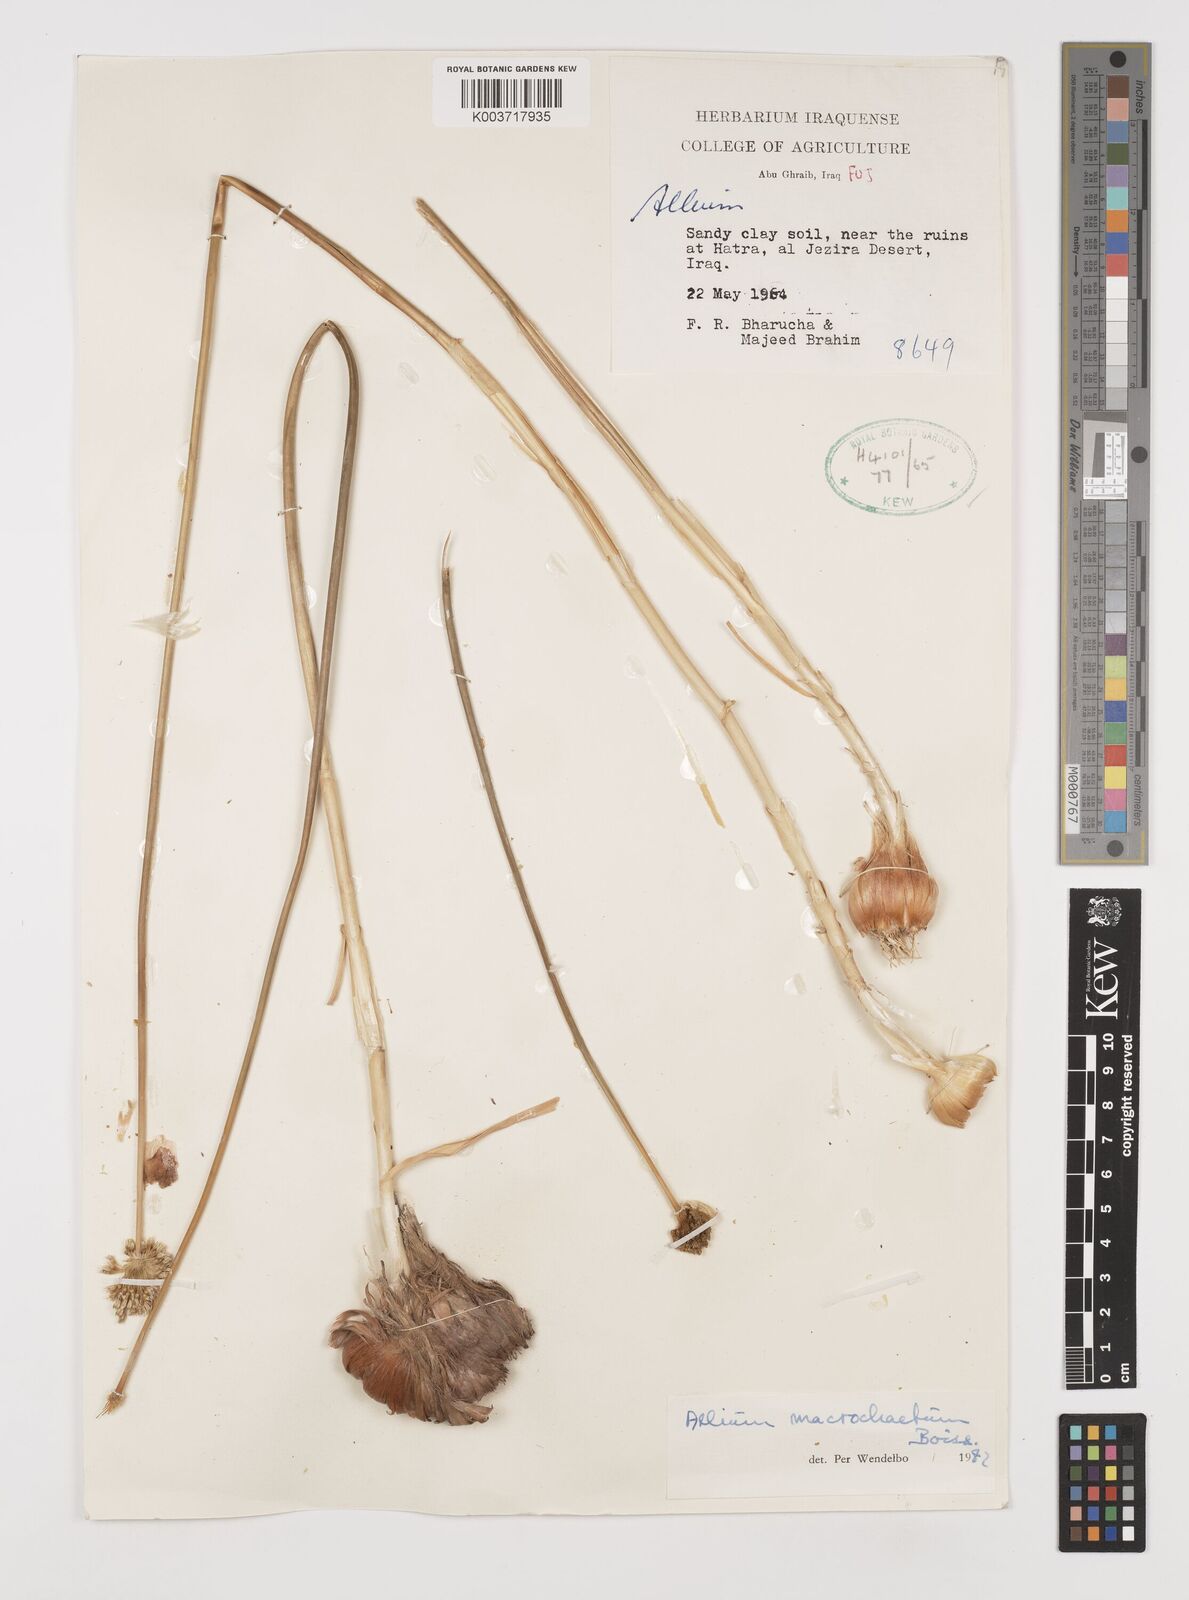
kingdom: Plantae
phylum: Tracheophyta
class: Liliopsida
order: Asparagales
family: Amaryllidaceae
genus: Allium
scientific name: Allium macrochaetum
